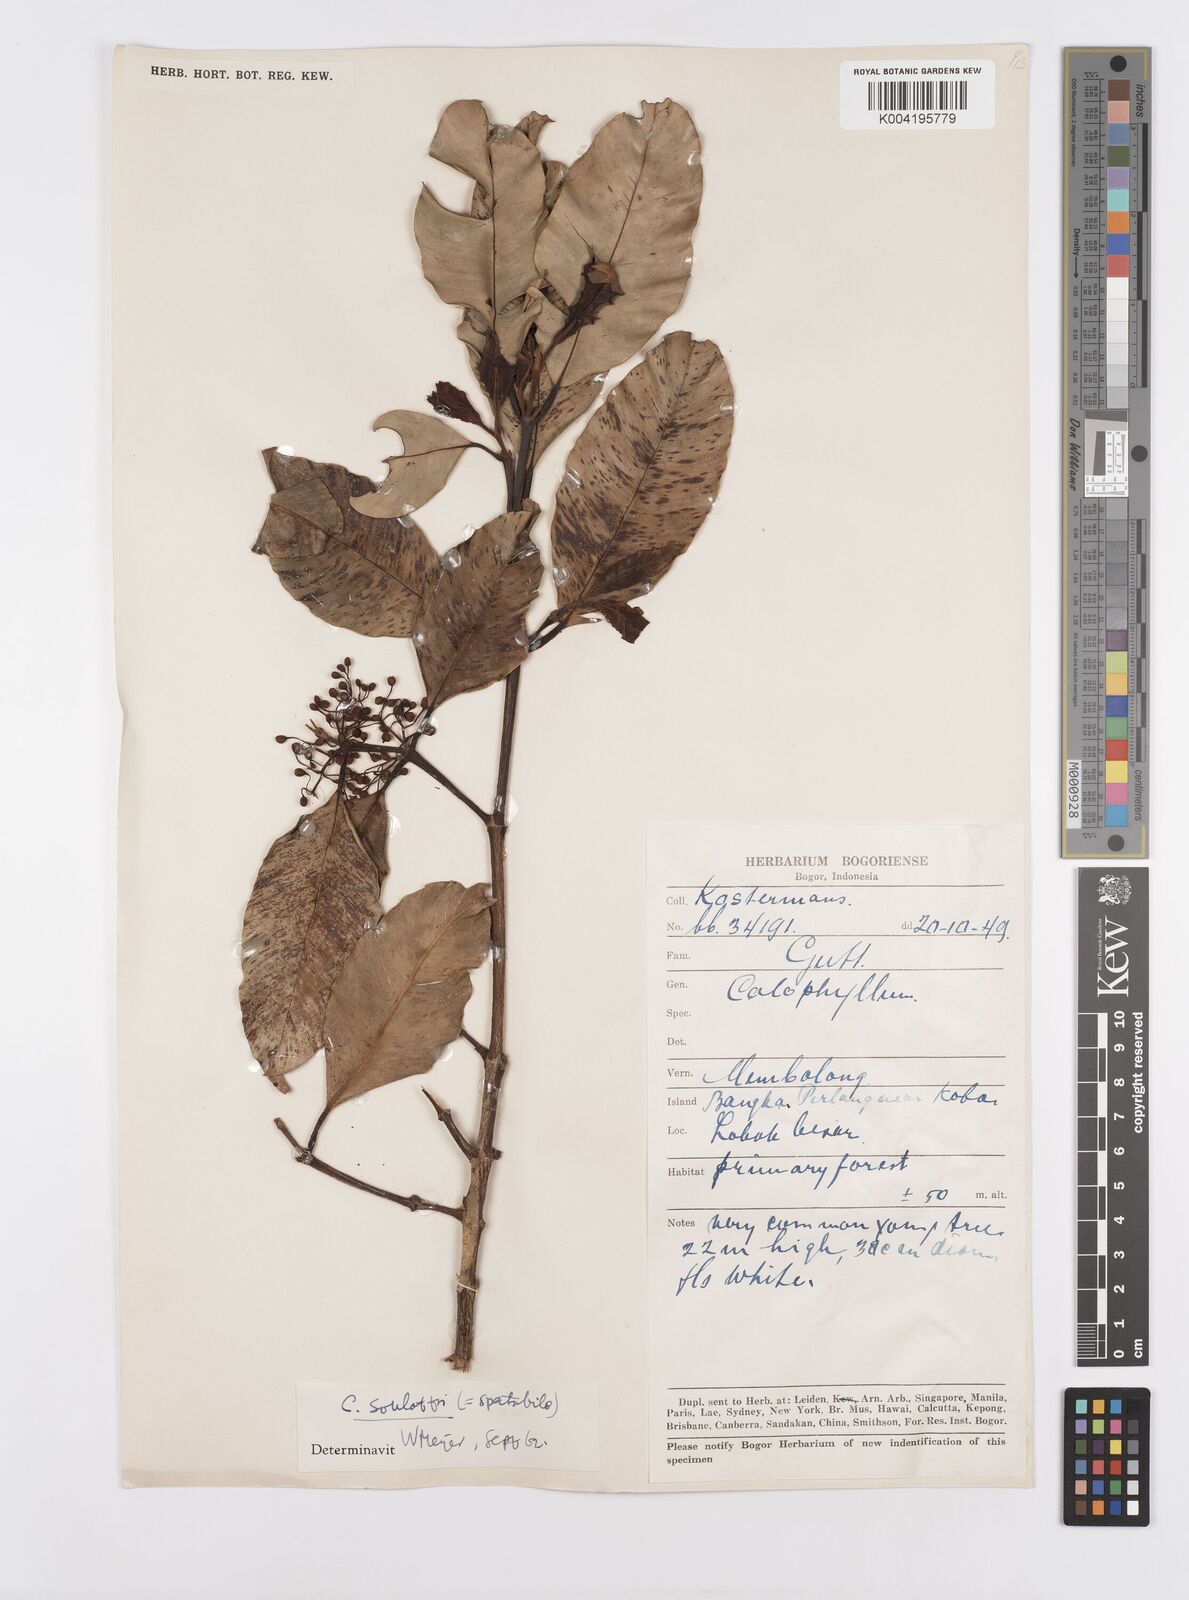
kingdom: Plantae
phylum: Tracheophyta
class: Magnoliopsida
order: Malpighiales
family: Calophyllaceae
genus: Calophyllum
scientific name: Calophyllum soulattri
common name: Bitangoor boonot
